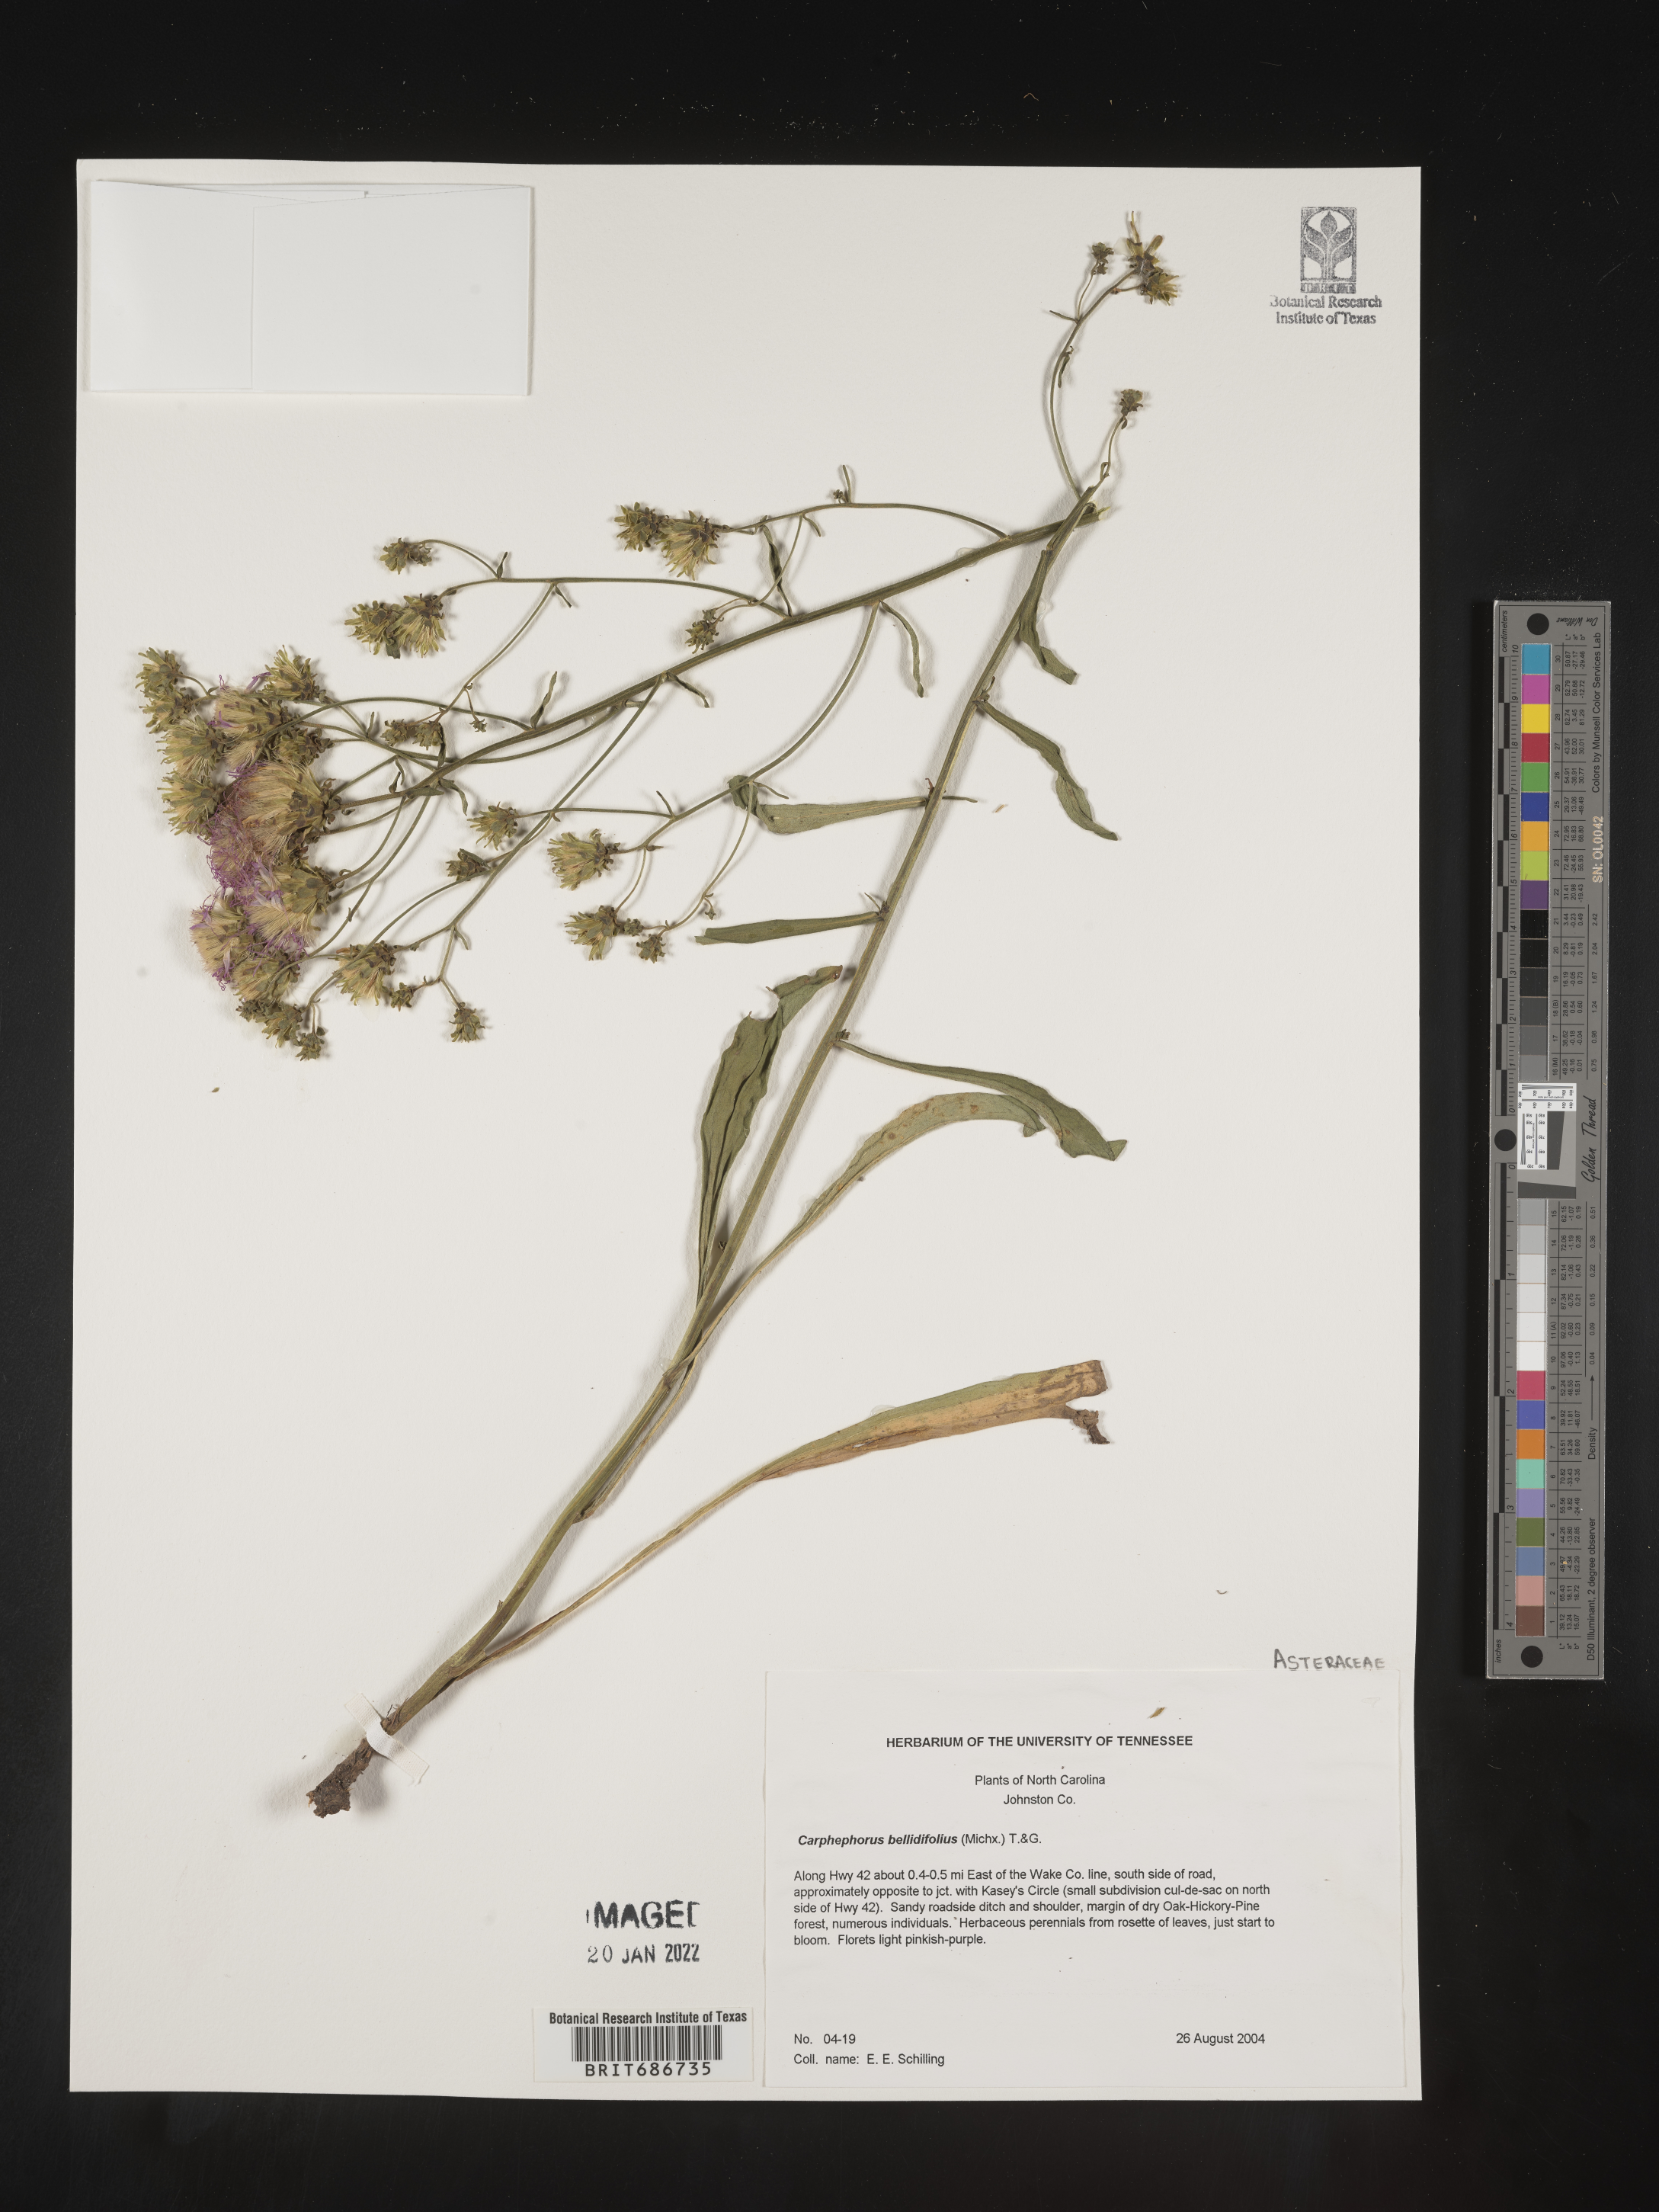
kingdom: Plantae
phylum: Tracheophyta
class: Magnoliopsida
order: Asterales
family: Asteraceae
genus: Carphephorus
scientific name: Carphephorus bellidifolius
